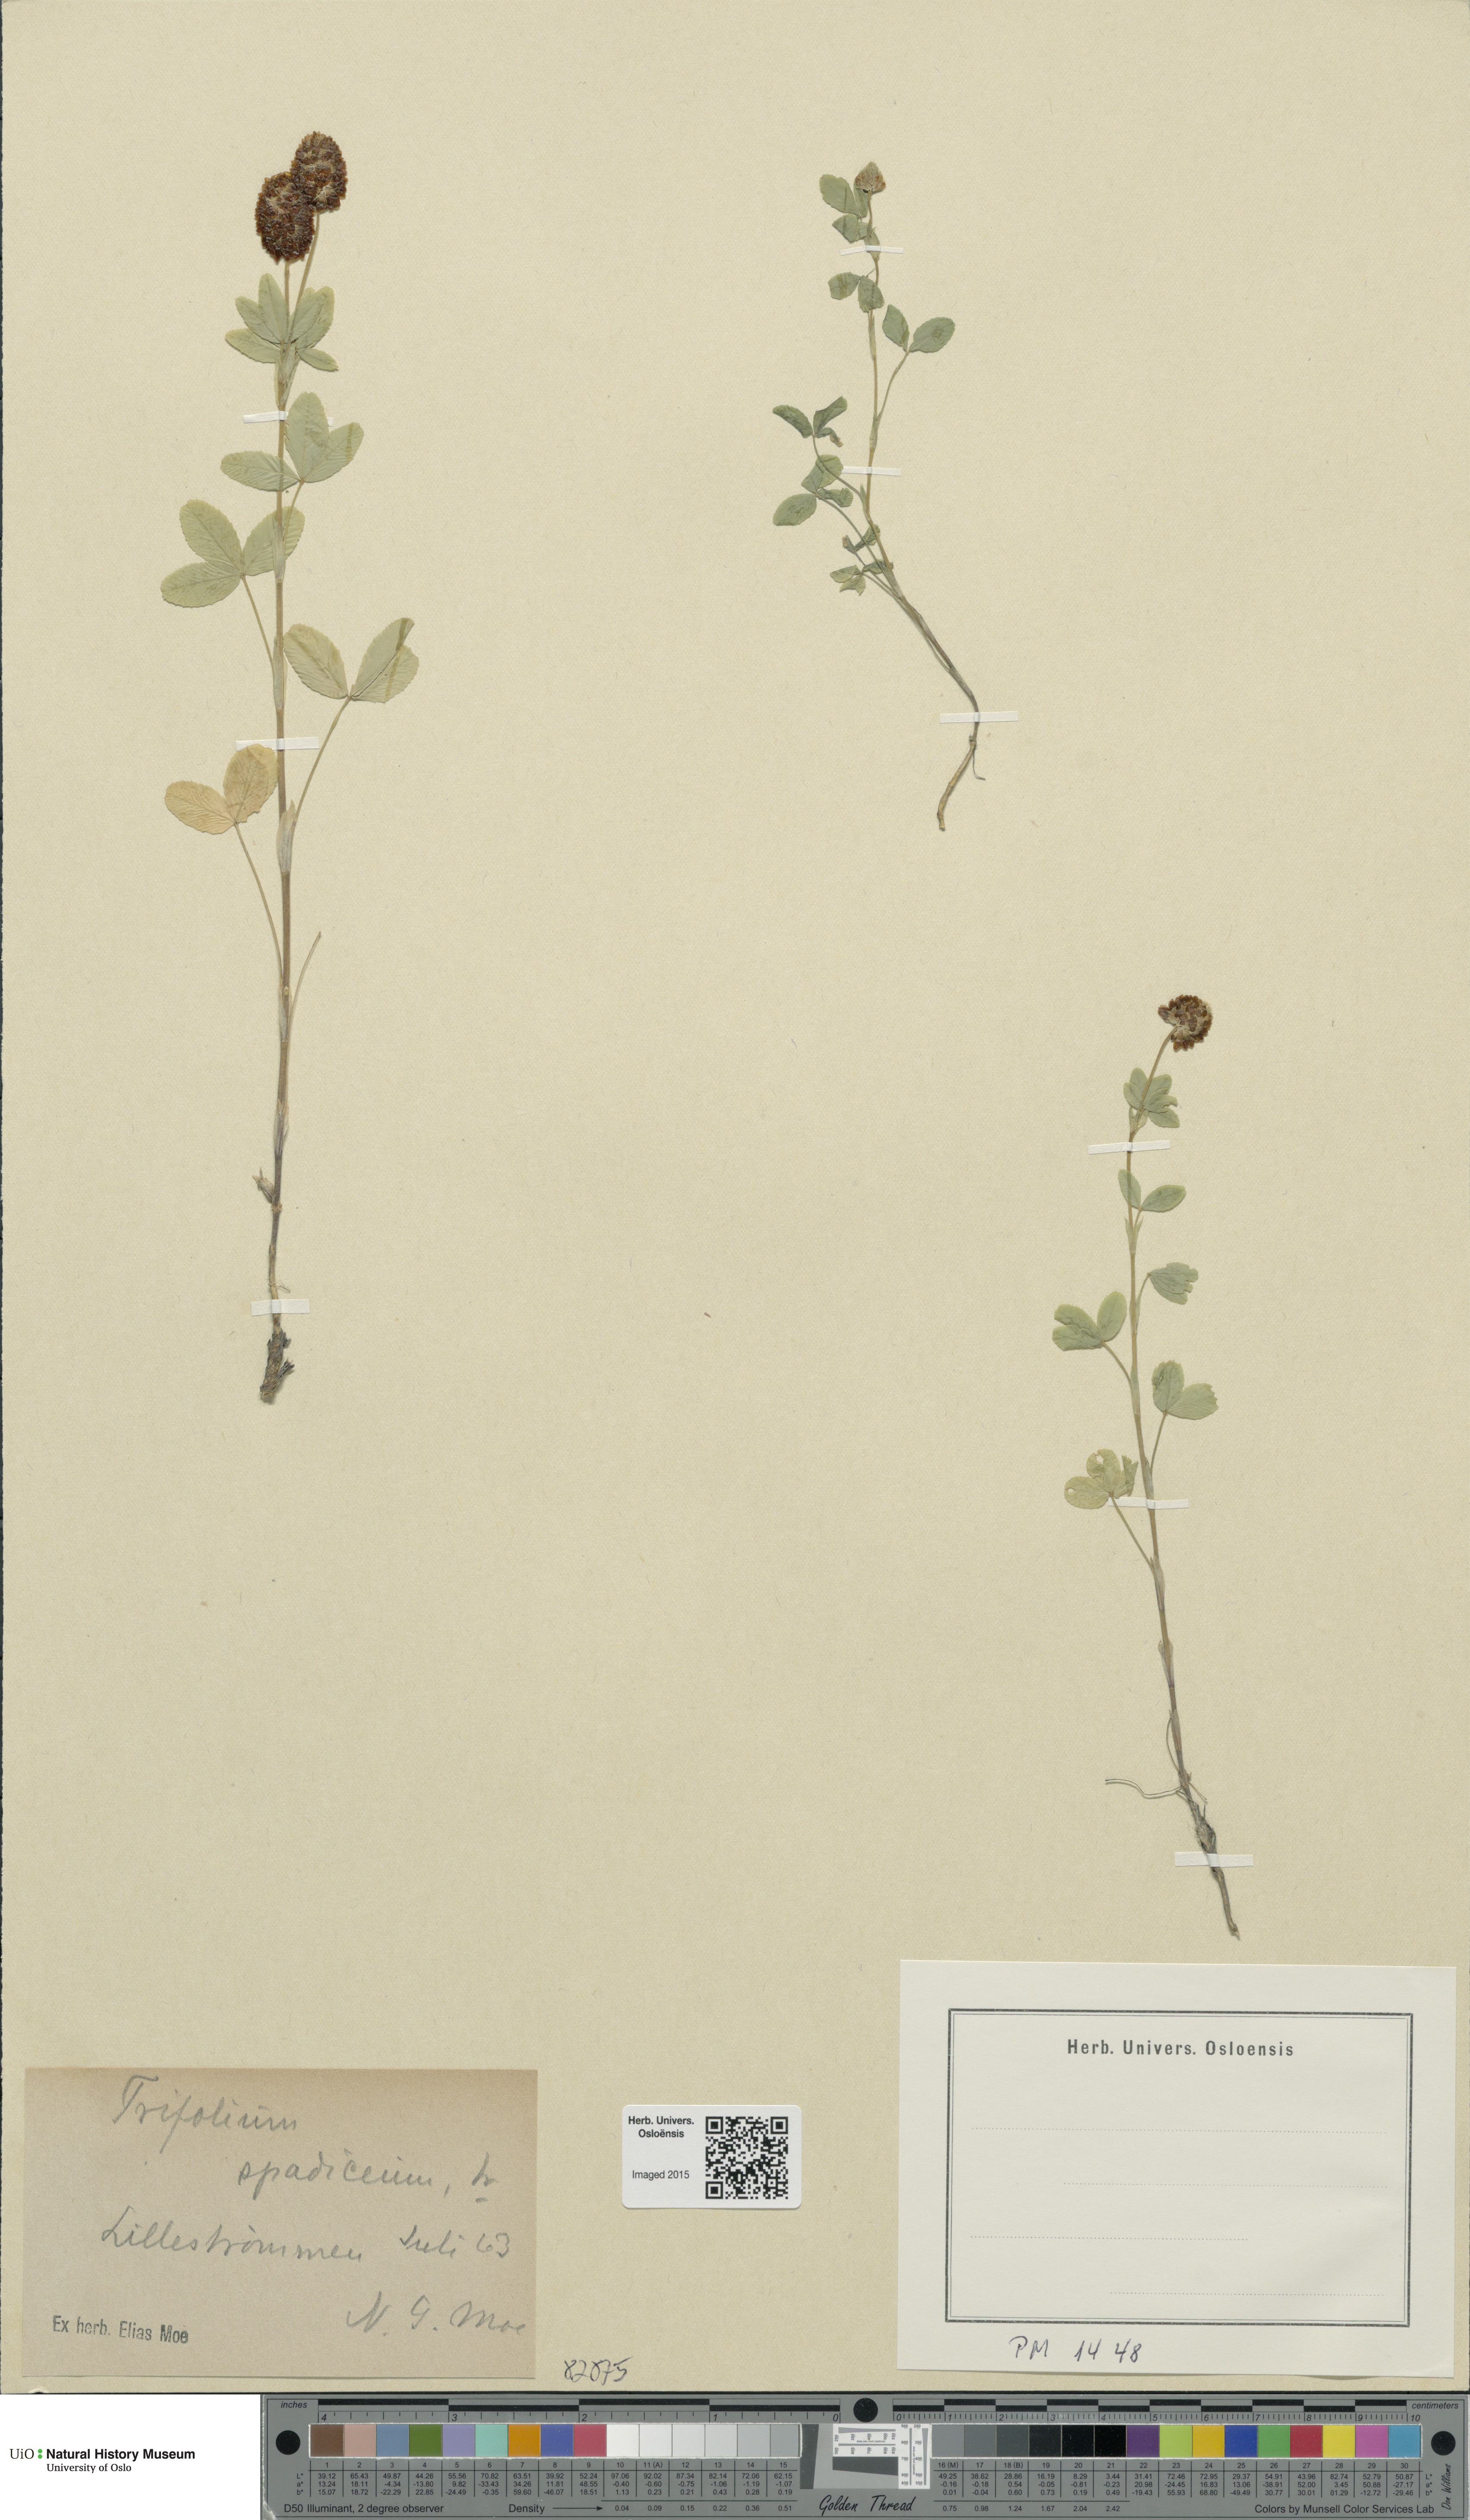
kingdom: Plantae
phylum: Tracheophyta
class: Magnoliopsida
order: Fabales
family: Fabaceae
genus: Trifolium
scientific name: Trifolium spadiceum
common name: Brown moor clover
